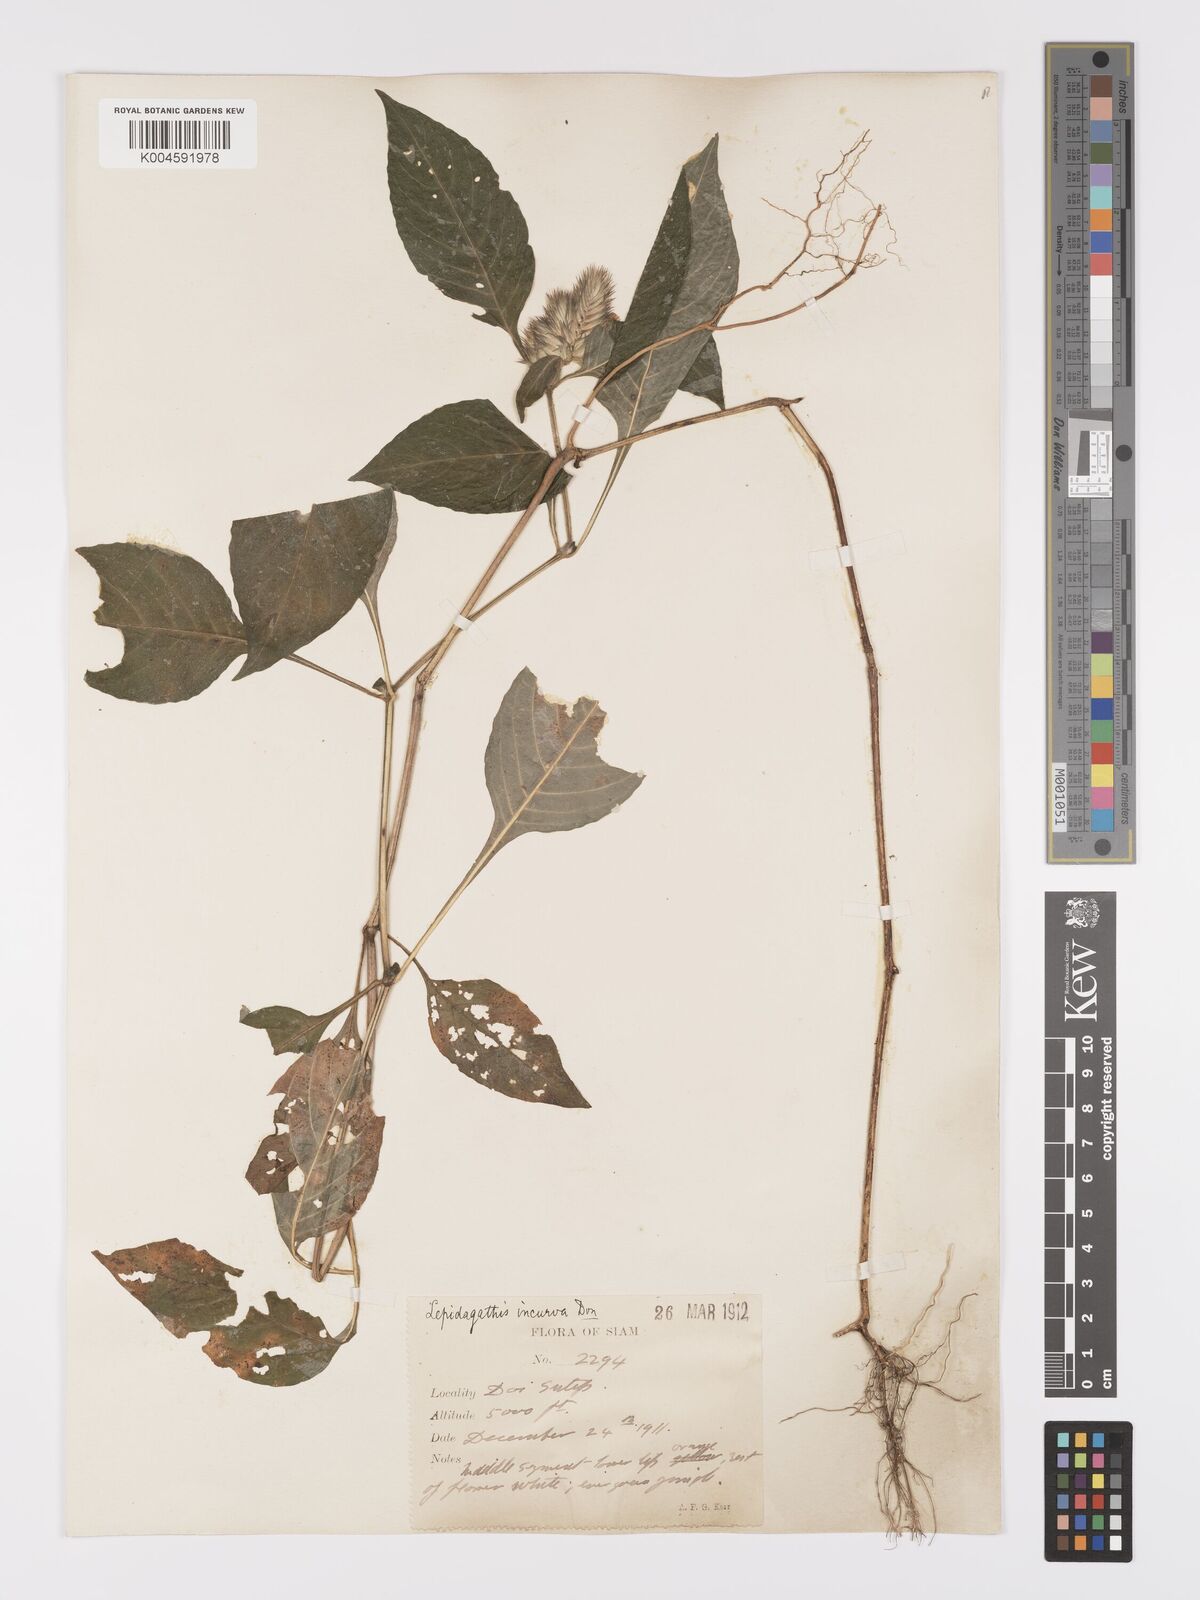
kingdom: Plantae
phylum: Tracheophyta
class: Magnoliopsida
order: Lamiales
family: Acanthaceae
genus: Lepidagathis
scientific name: Lepidagathis incurva
